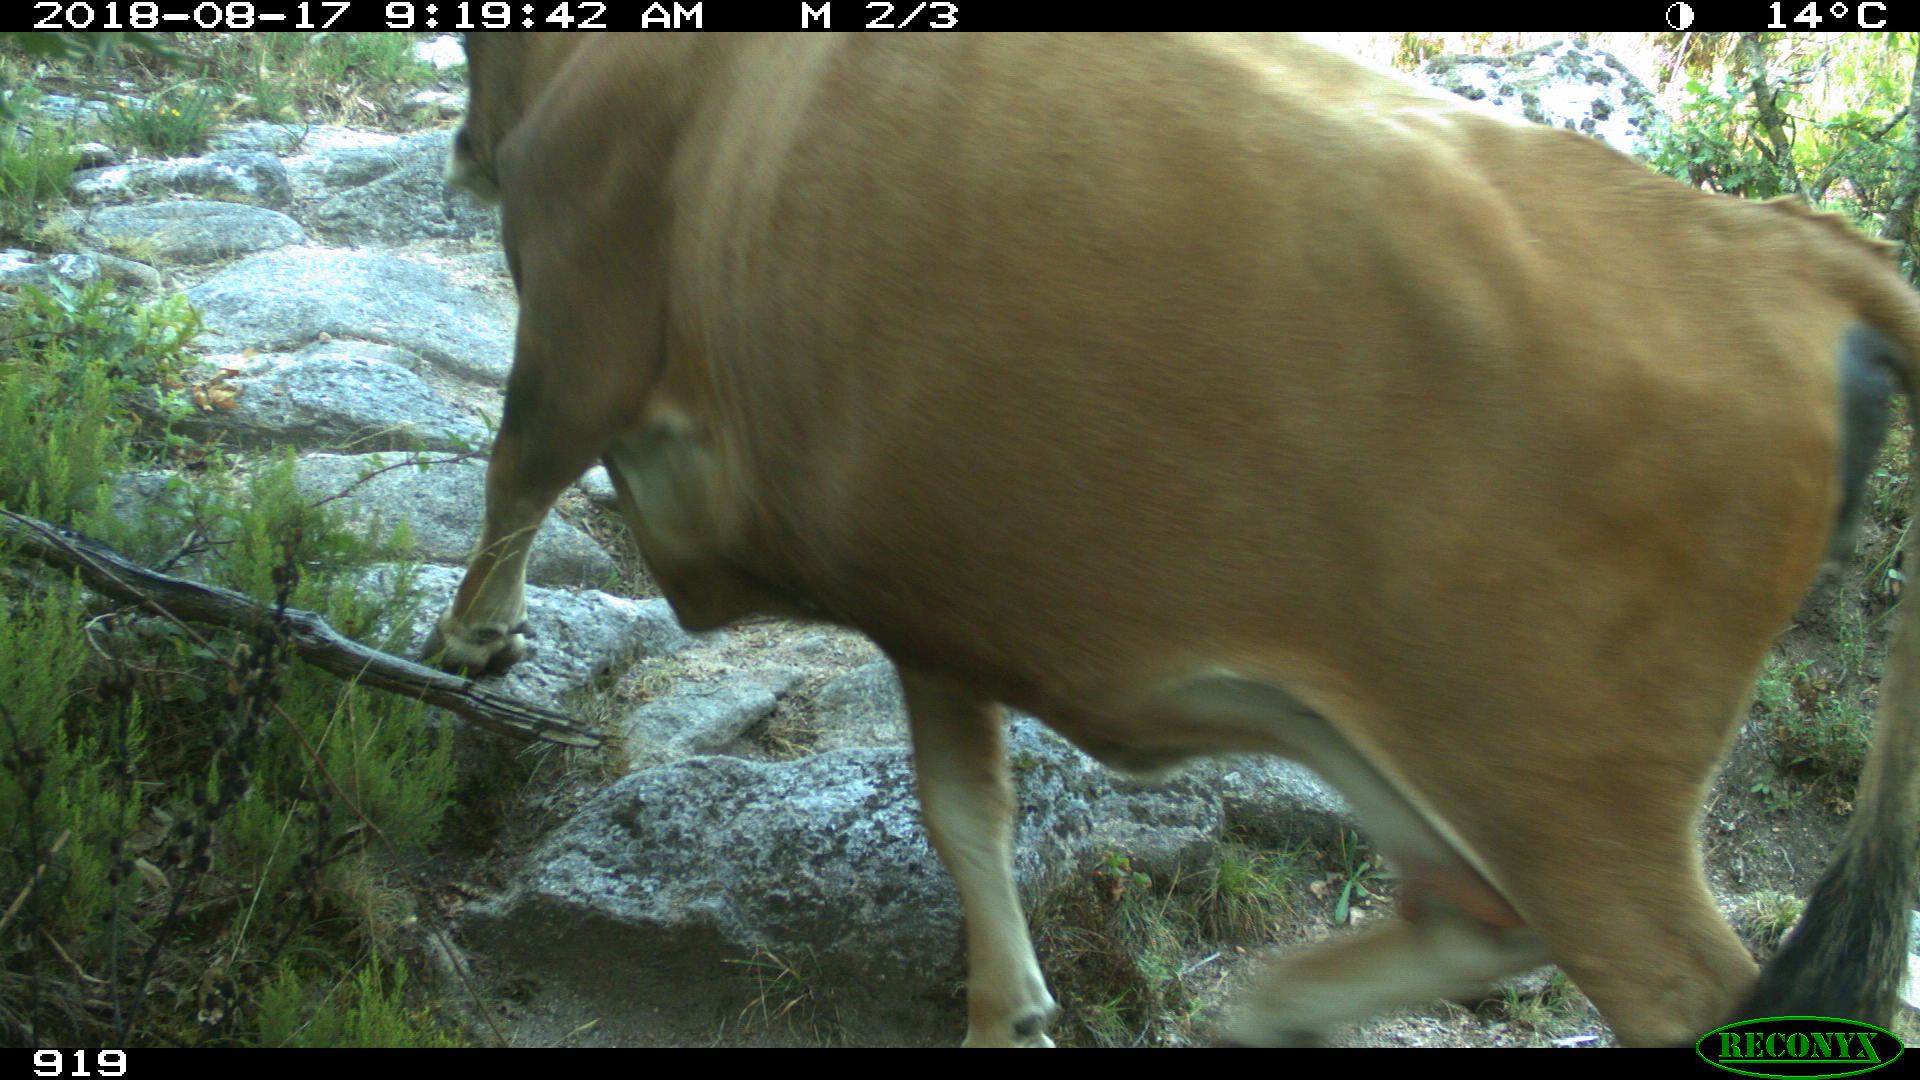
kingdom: Animalia
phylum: Chordata
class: Mammalia
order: Artiodactyla
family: Bovidae
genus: Bos
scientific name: Bos taurus
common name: Domesticated cattle
